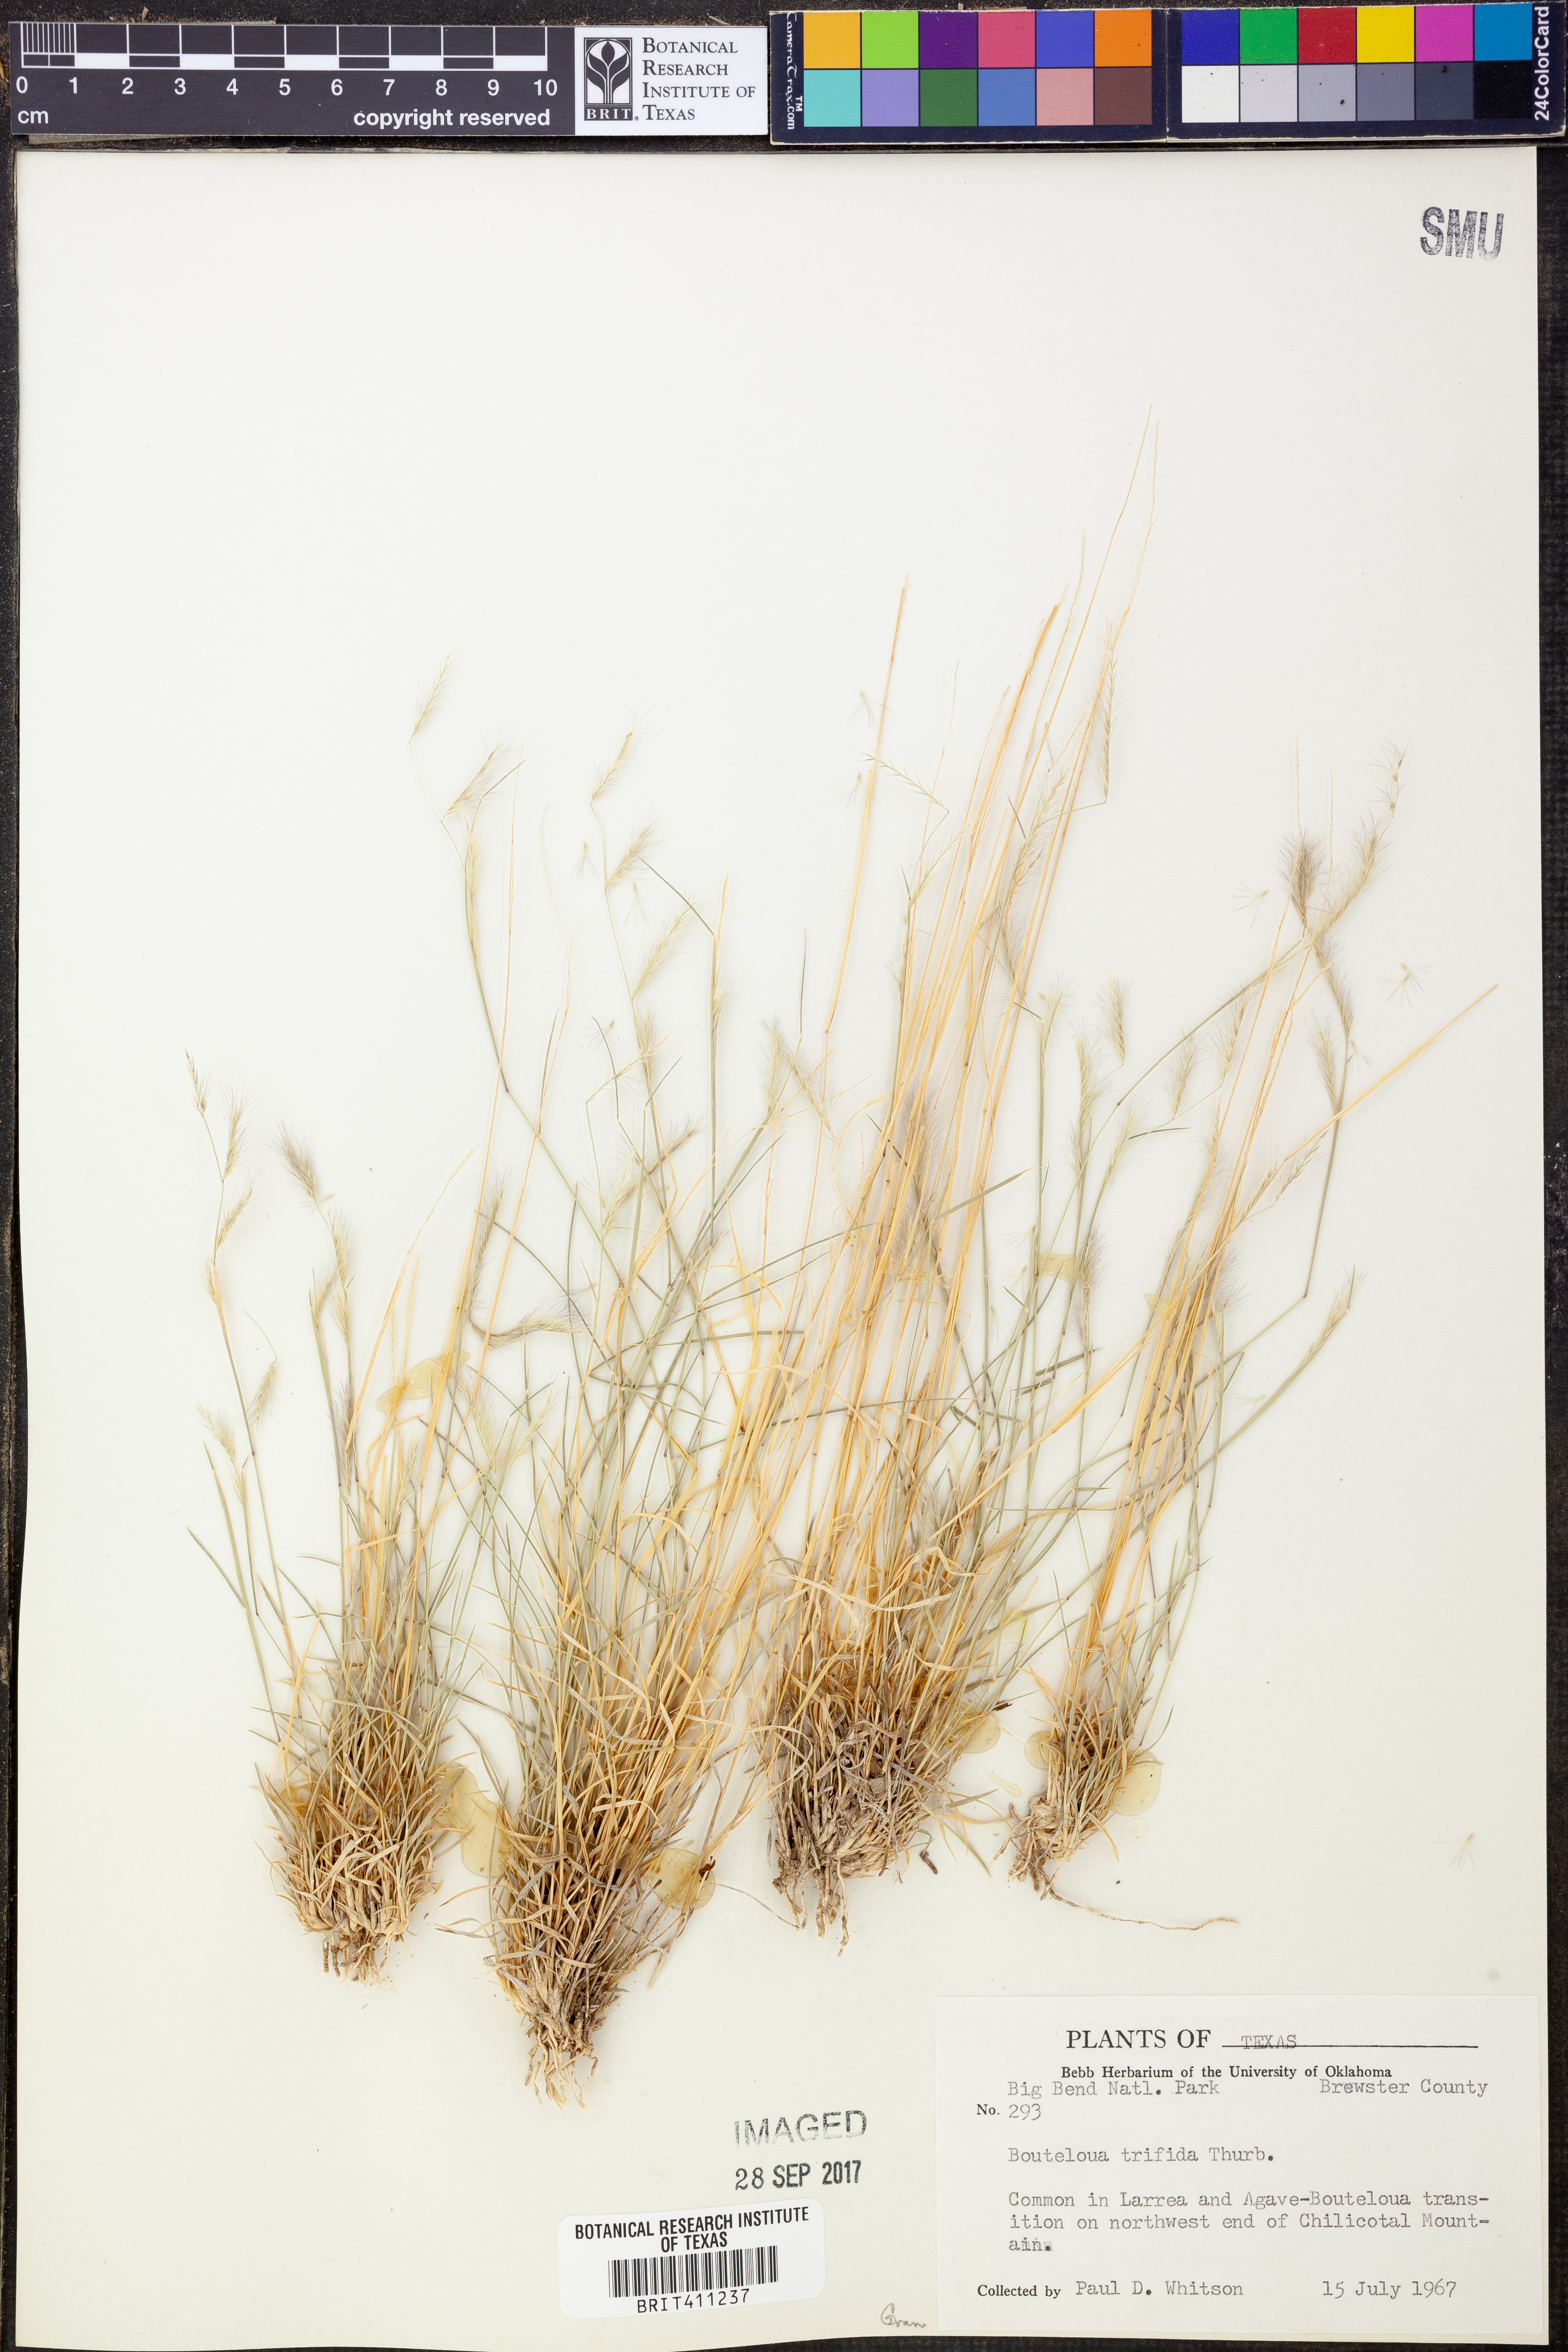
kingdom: Plantae
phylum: Tracheophyta
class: Liliopsida
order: Poales
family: Poaceae
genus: Bouteloua
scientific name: Bouteloua trifida
